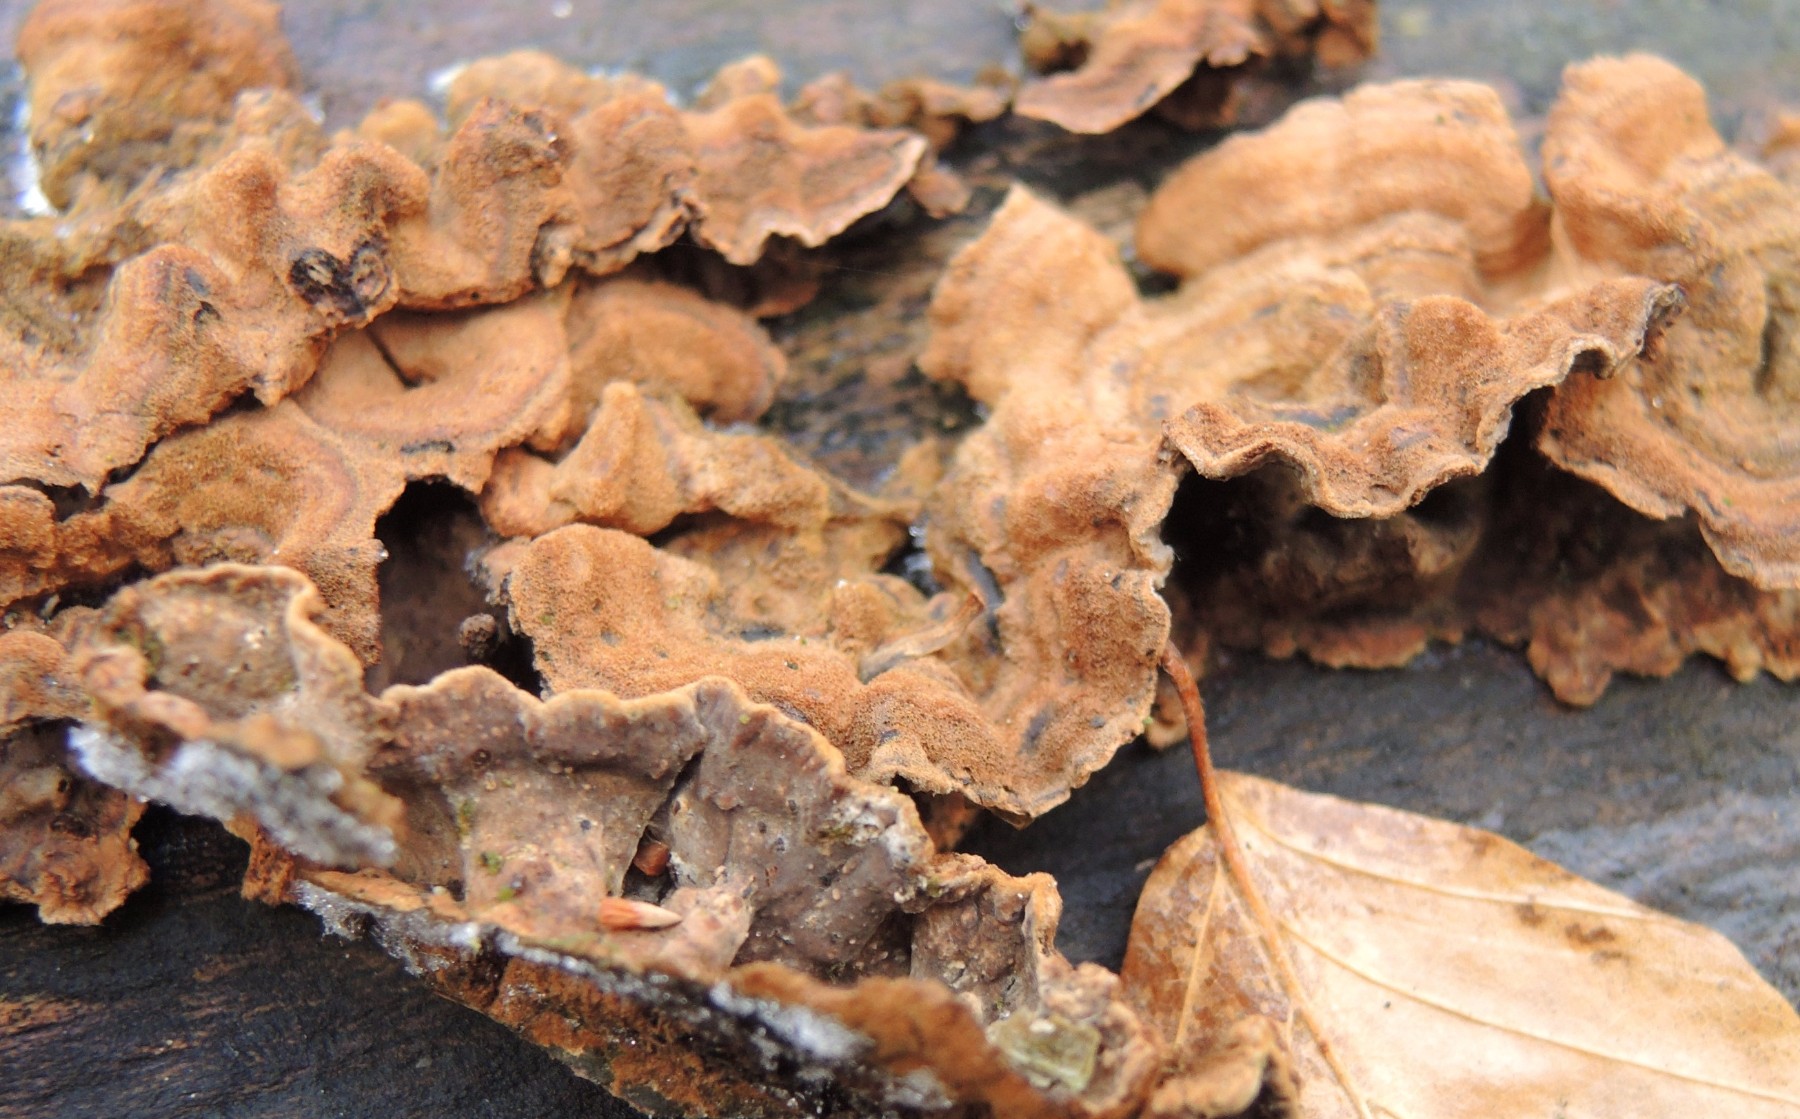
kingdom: Fungi
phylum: Basidiomycota
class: Agaricomycetes
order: Russulales
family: Stereaceae
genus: Stereum
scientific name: Stereum subtomentosum
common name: smuk lædersvamp
